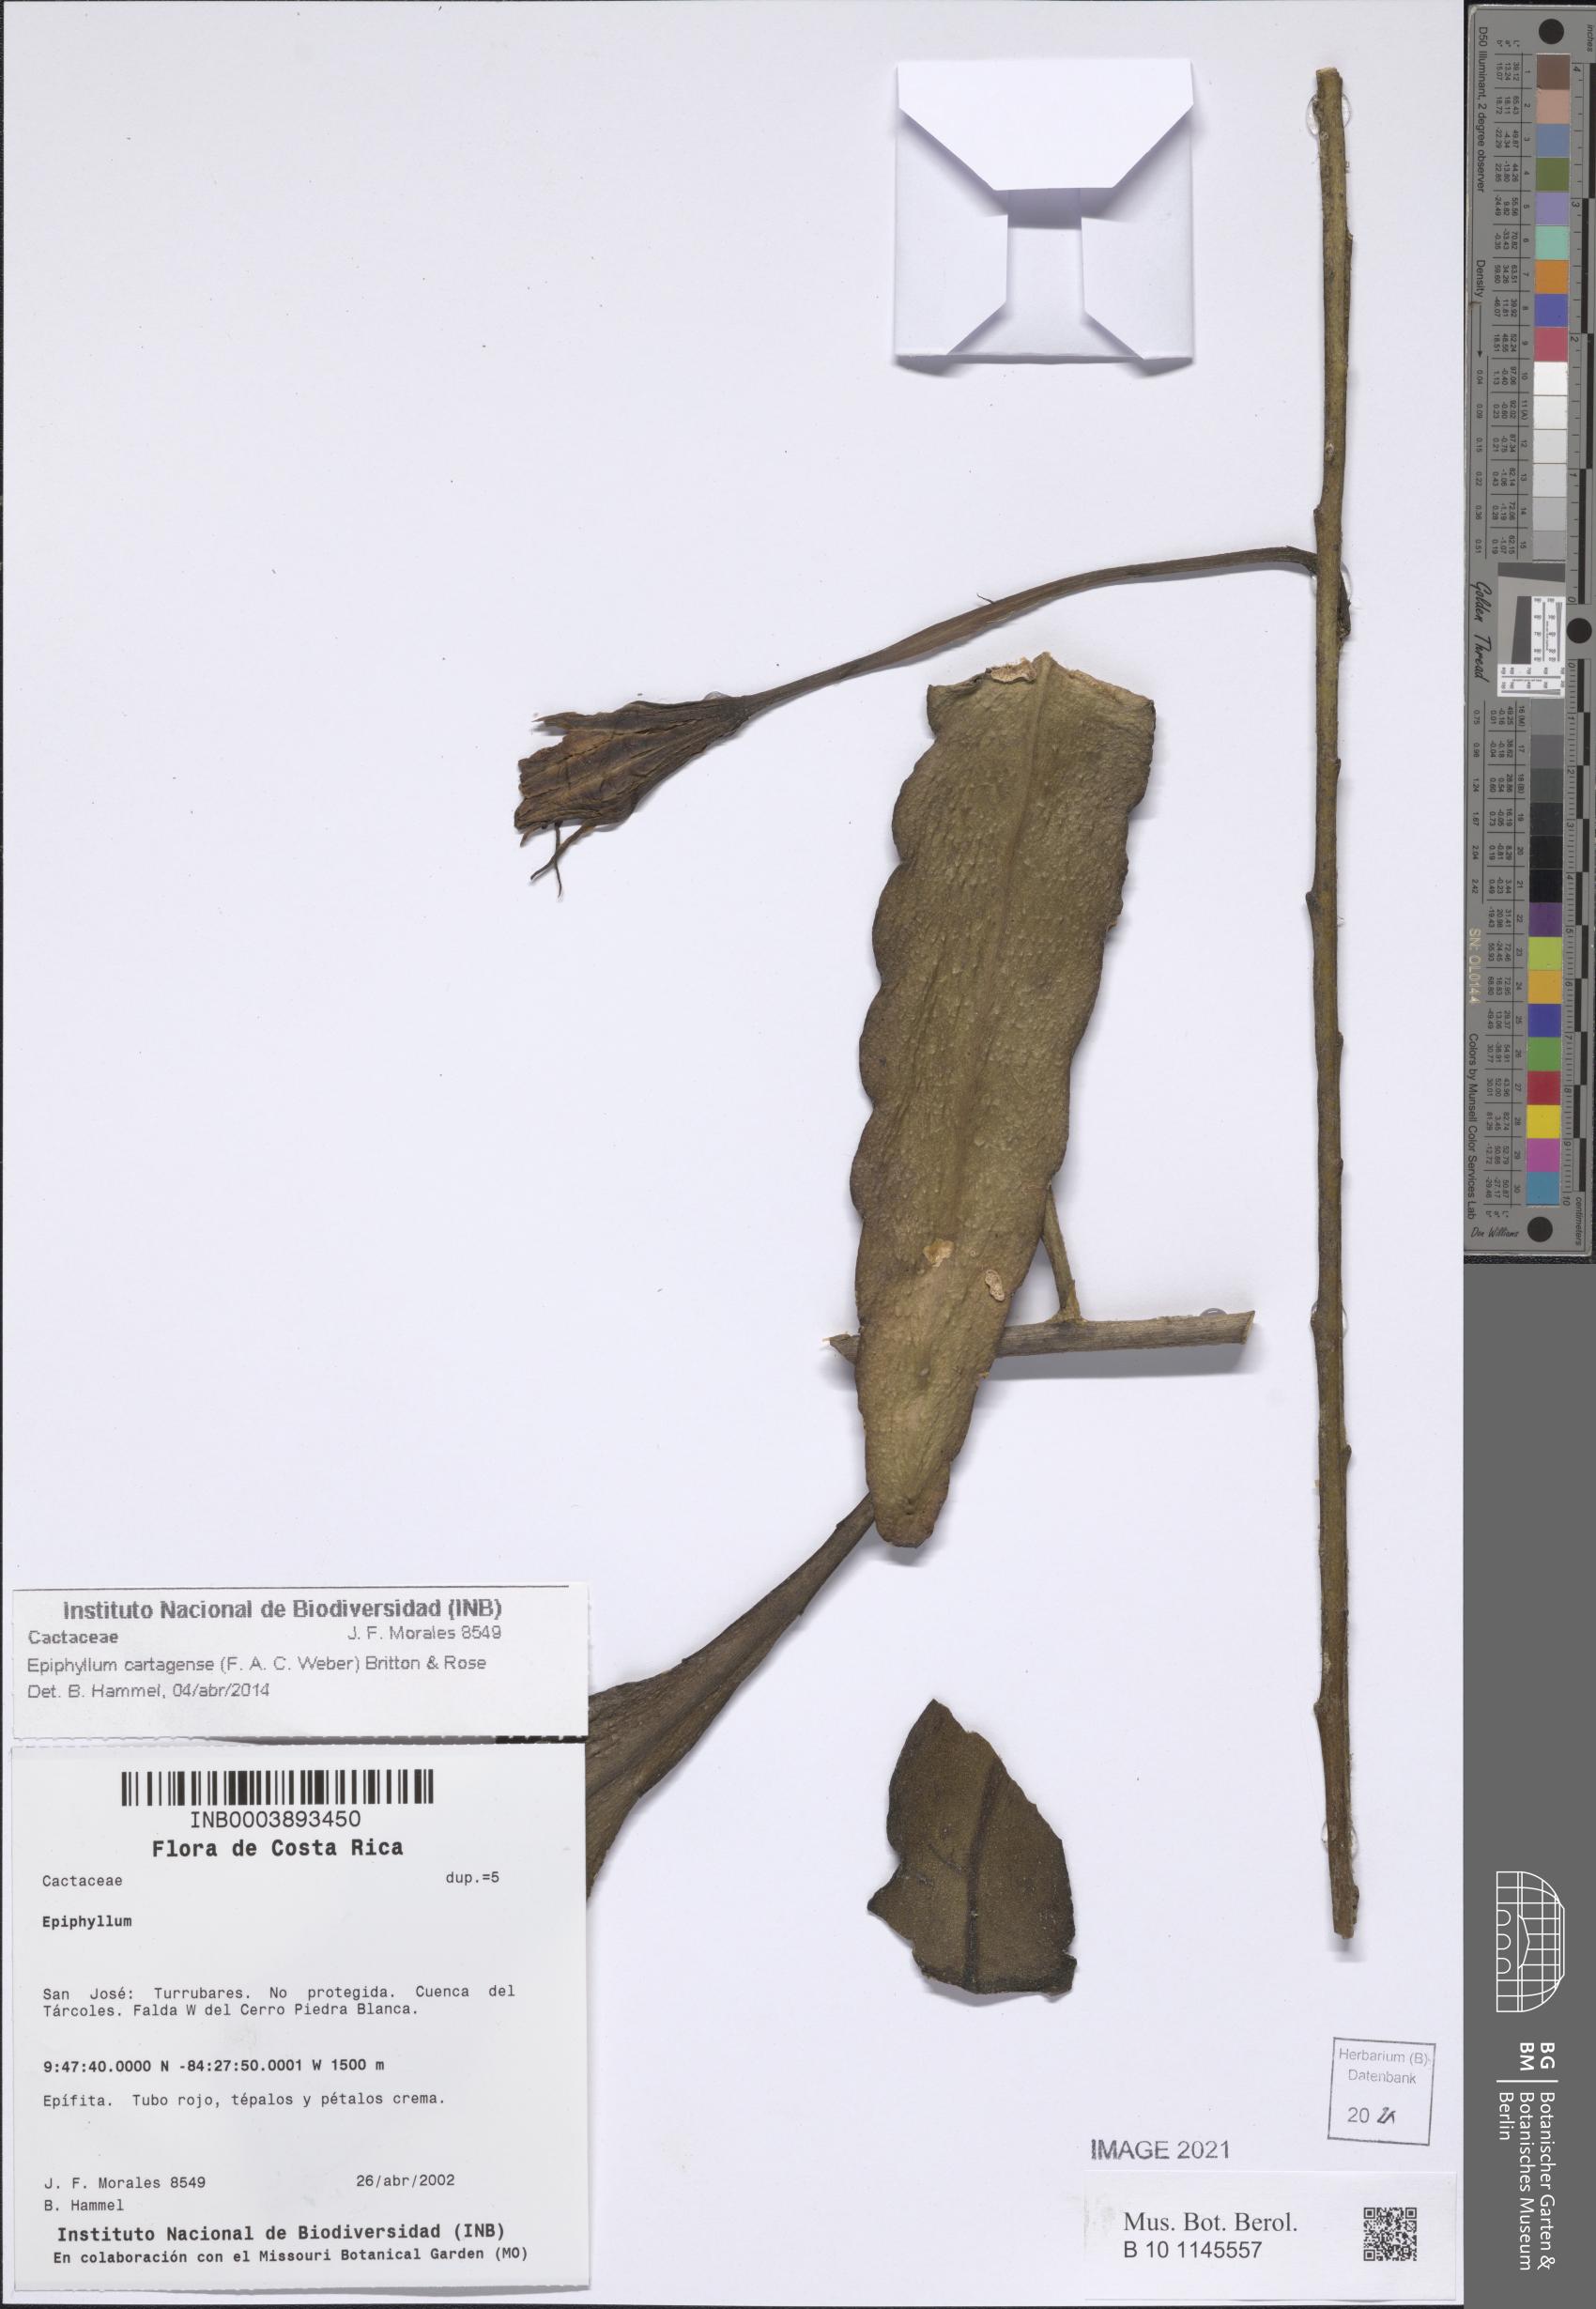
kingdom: Plantae
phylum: Tracheophyta
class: Magnoliopsida
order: Caryophyllales
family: Cactaceae
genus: Epiphyllum
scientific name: Epiphyllum cartagense
